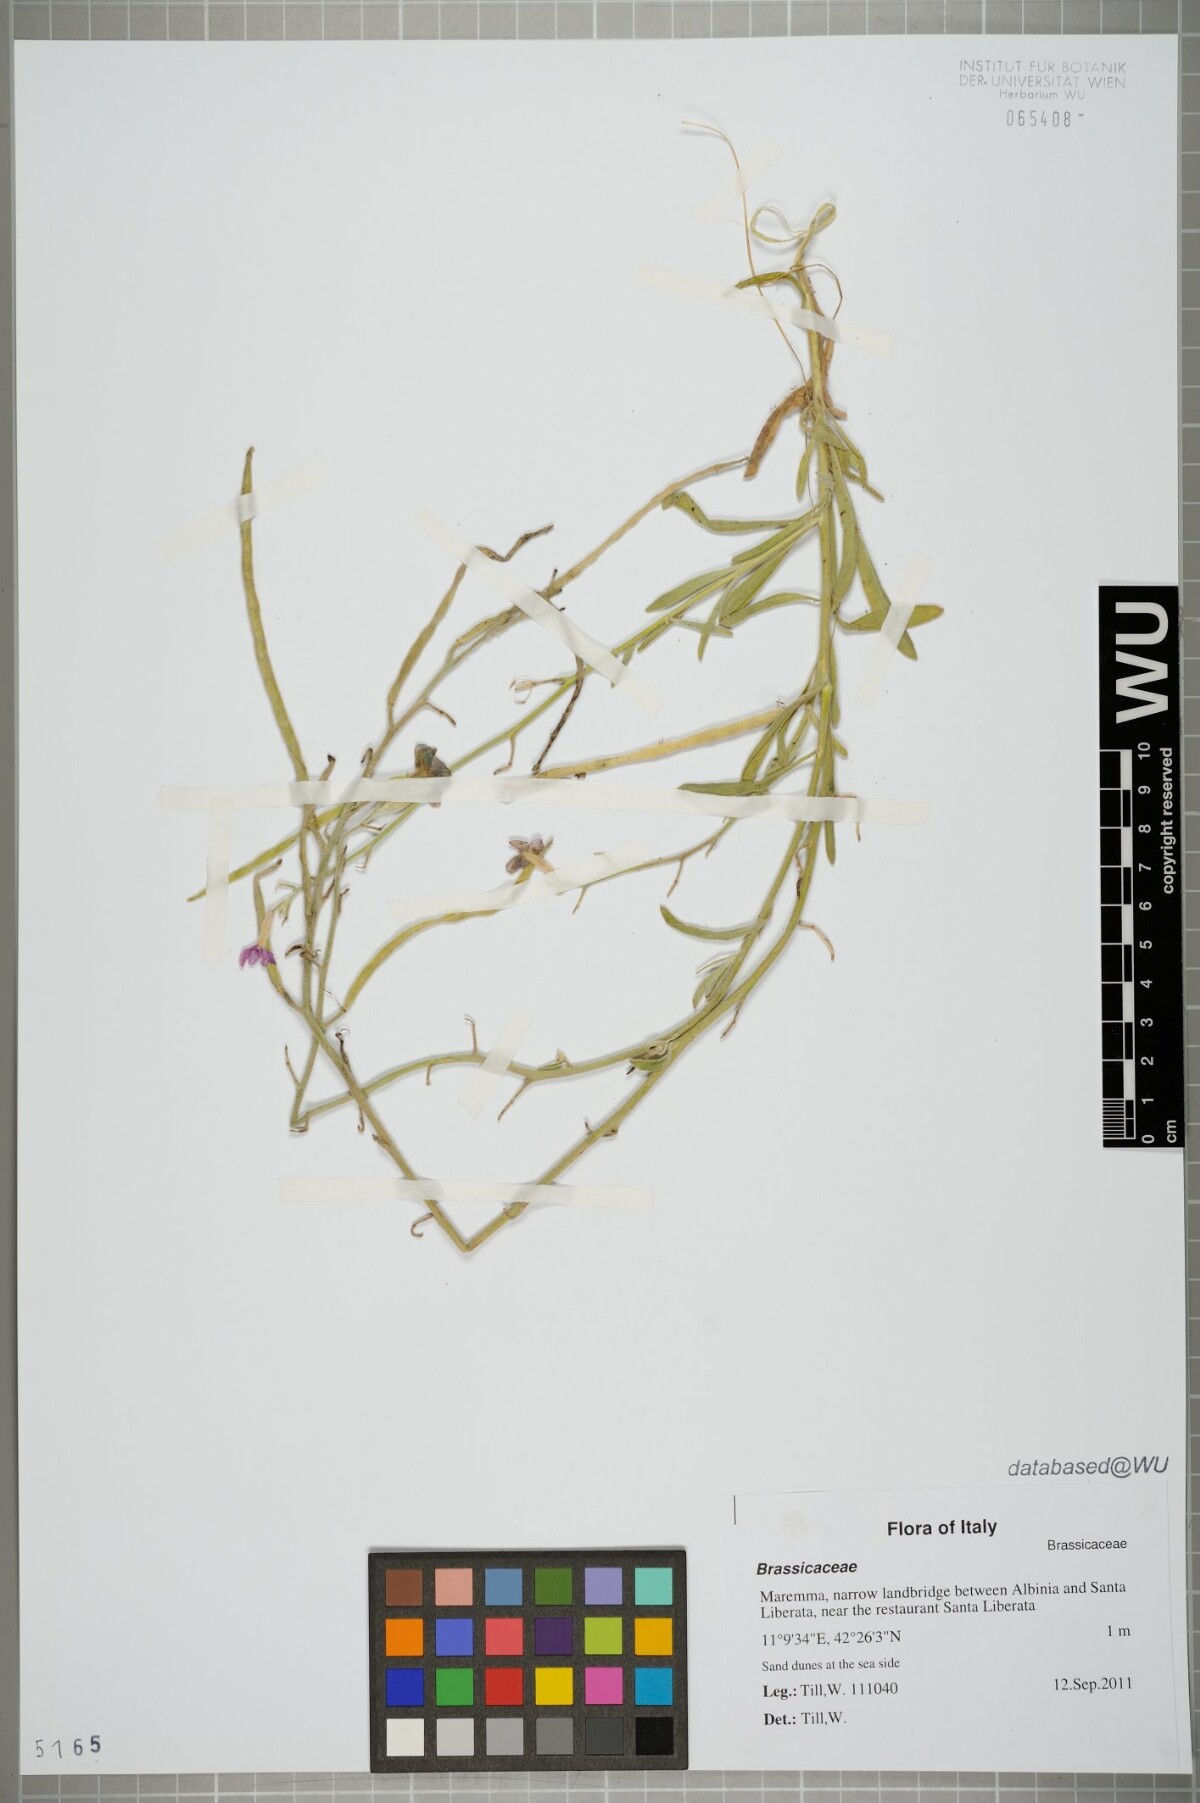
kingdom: Plantae
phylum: Tracheophyta
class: Magnoliopsida
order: Brassicales
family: Brassicaceae
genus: Matthiola
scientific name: Matthiola incana
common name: Hoary stock
